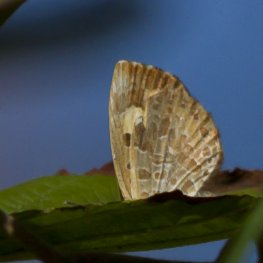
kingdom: Animalia
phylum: Arthropoda
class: Insecta
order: Lepidoptera
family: Lycaenidae
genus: Feniseca
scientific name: Feniseca tarquinius
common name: Harvester
